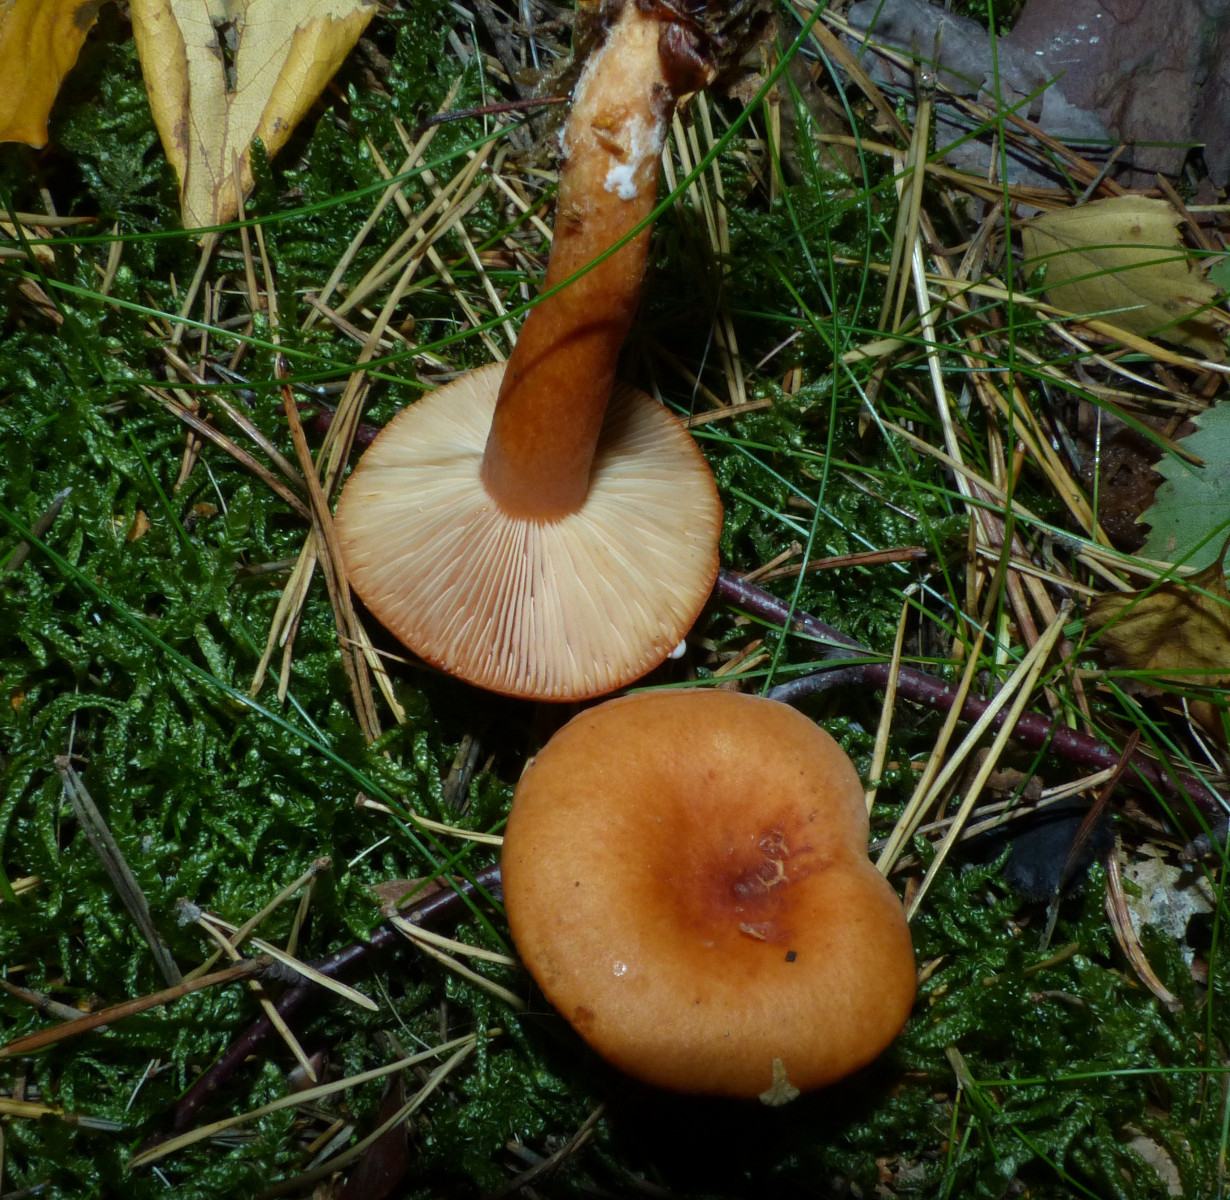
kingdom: Fungi
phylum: Basidiomycota
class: Agaricomycetes
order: Russulales
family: Russulaceae
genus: Lactarius
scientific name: Lactarius tabidus
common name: rynket mælkehat
